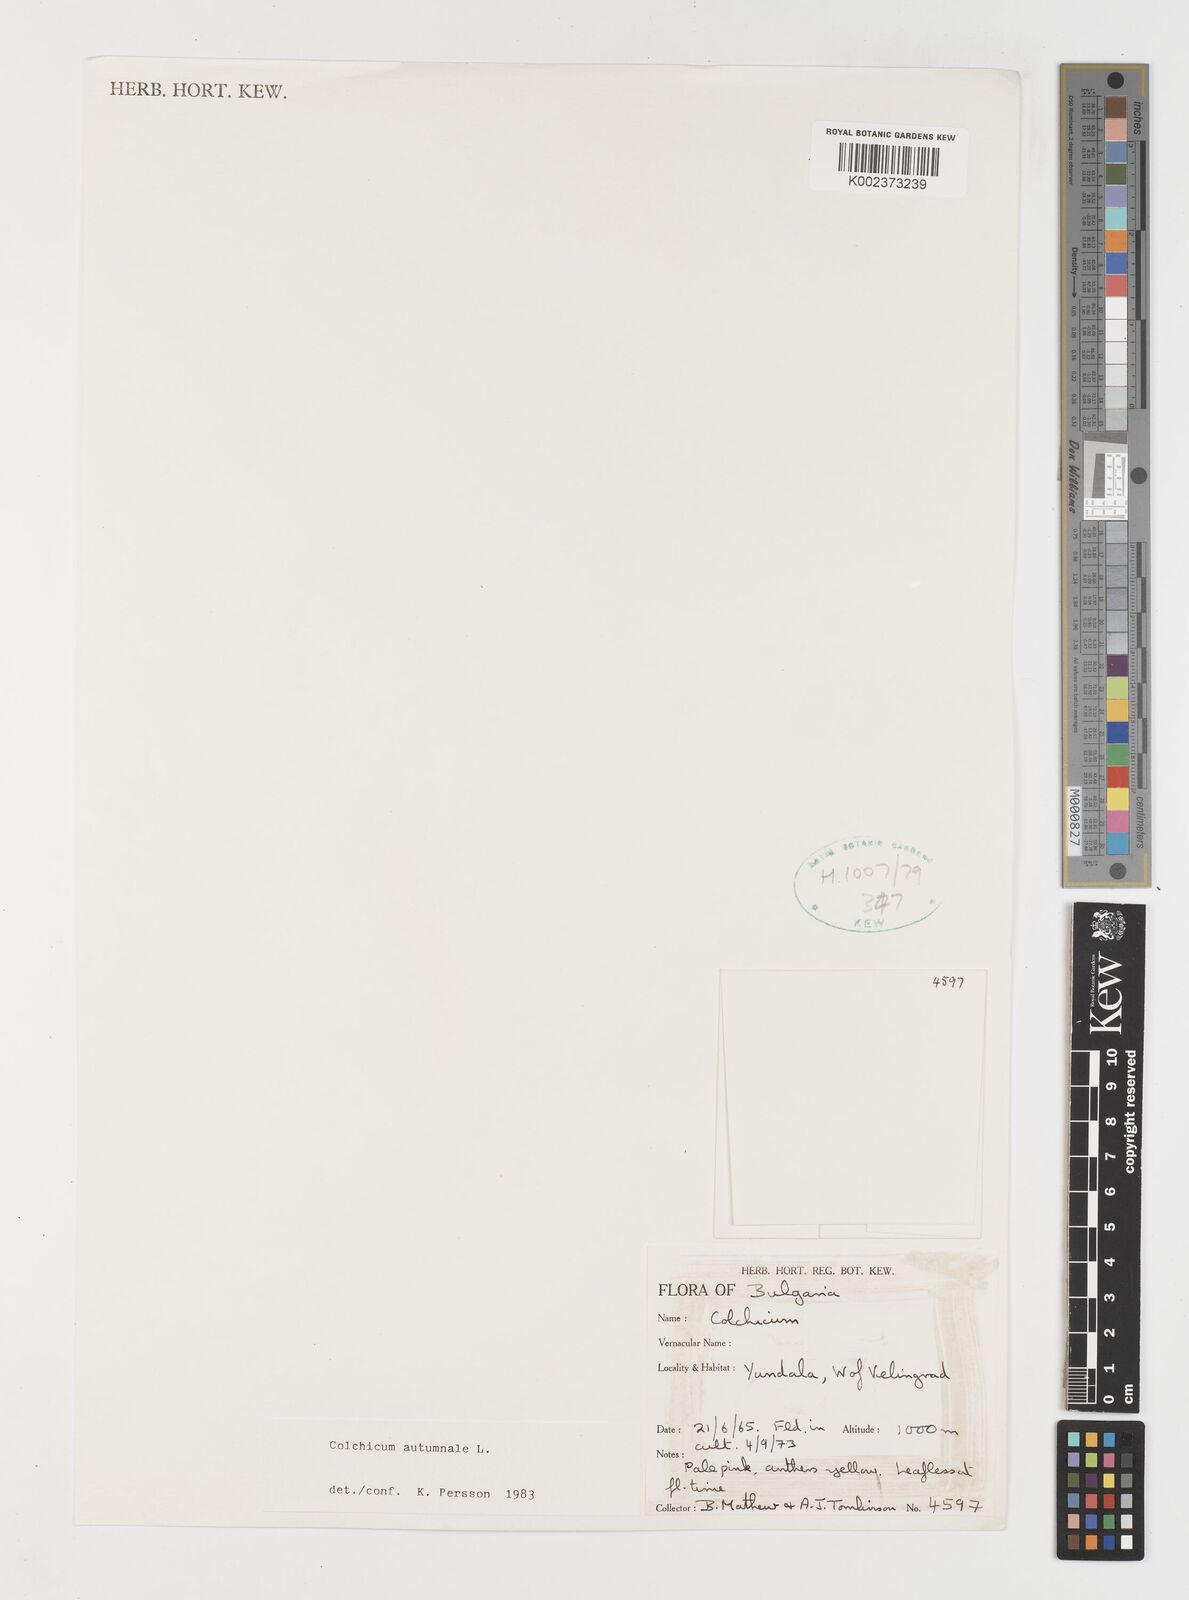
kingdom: Plantae
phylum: Tracheophyta
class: Liliopsida
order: Liliales
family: Colchicaceae
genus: Colchicum
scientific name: Colchicum autumnale
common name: Autumn crocus
